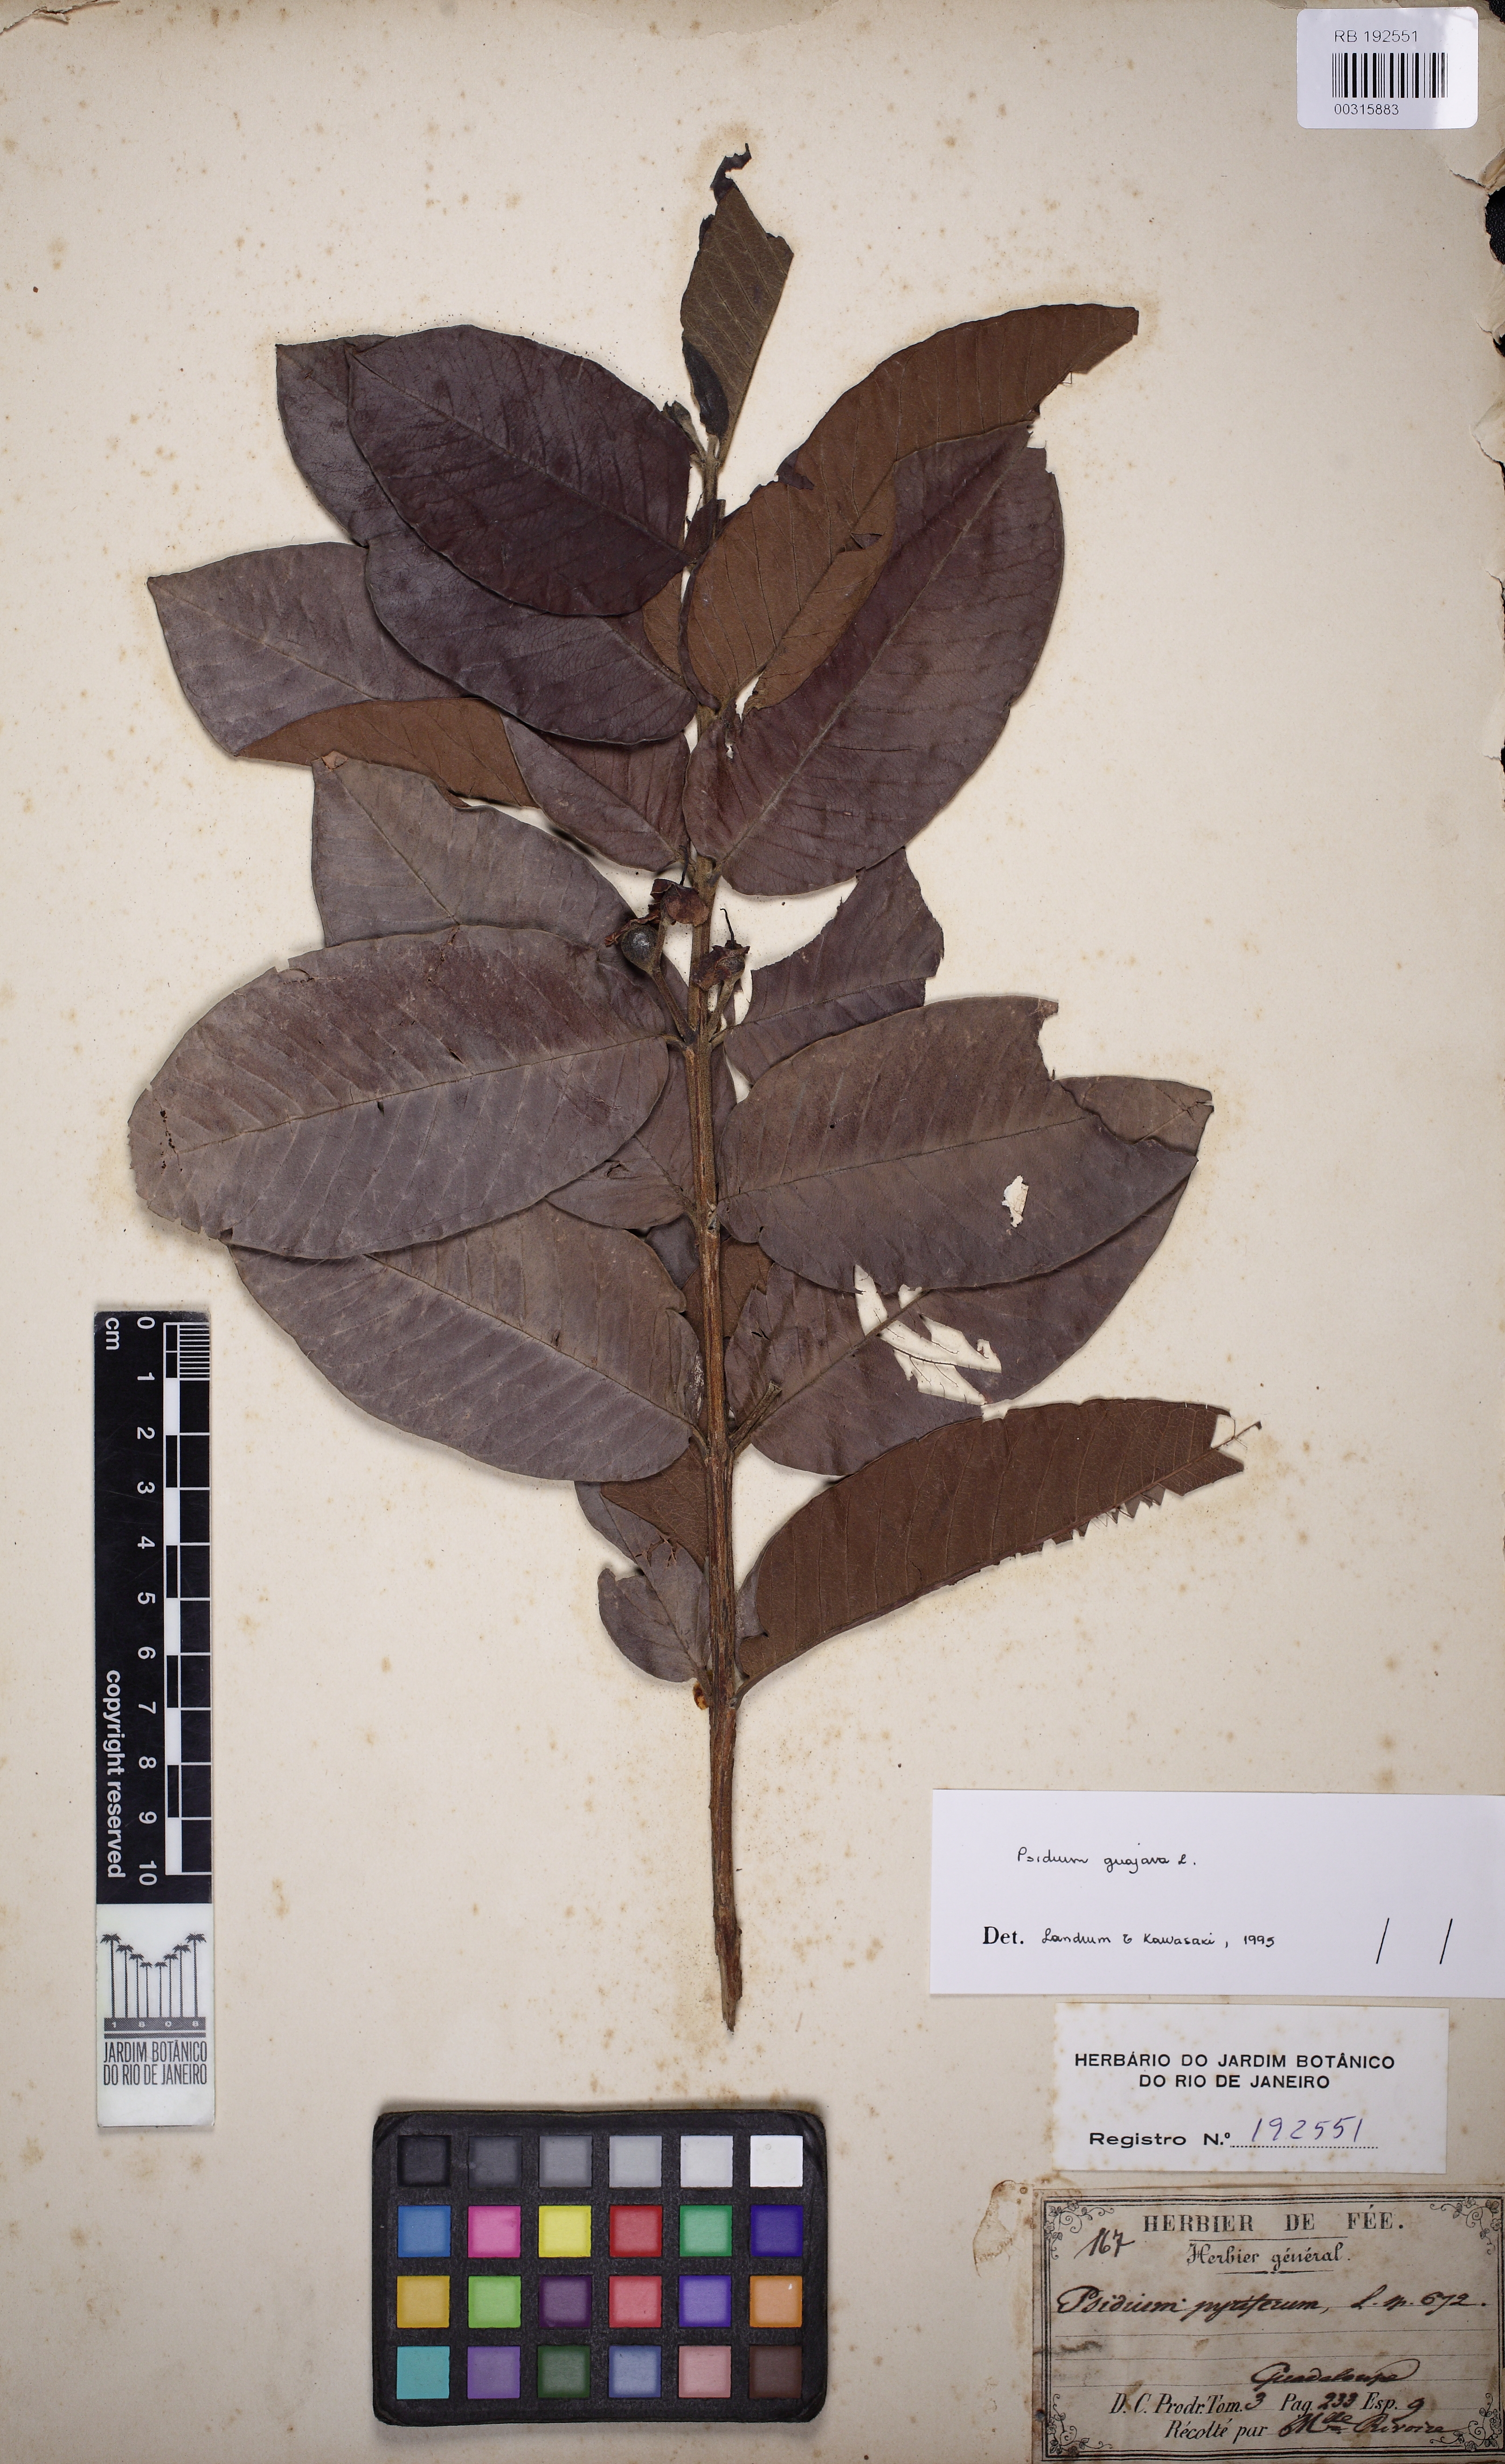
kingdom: Plantae
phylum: Tracheophyta
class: Magnoliopsida
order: Myrtales
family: Myrtaceae
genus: Psidium
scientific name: Psidium guajava
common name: Guava
